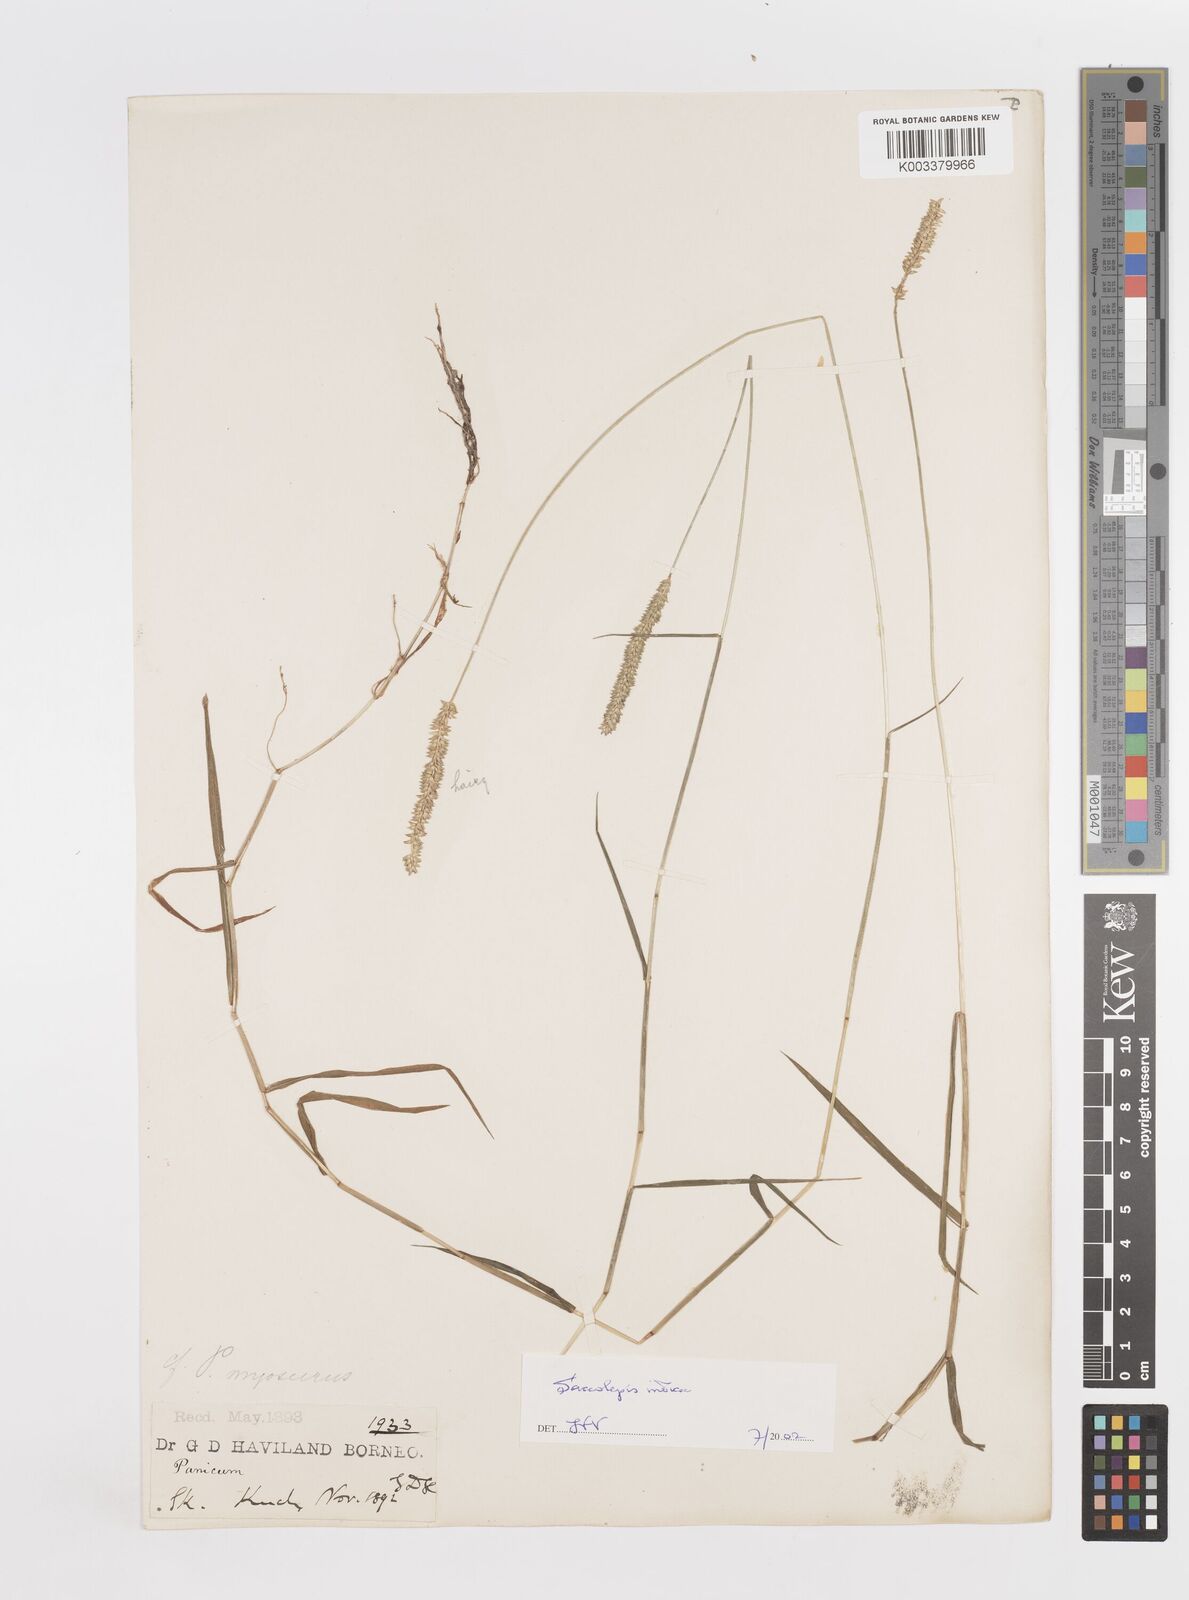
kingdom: Plantae
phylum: Tracheophyta
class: Liliopsida
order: Poales
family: Poaceae
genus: Sacciolepis
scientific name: Sacciolepis indica
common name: Glenwoodgrass
